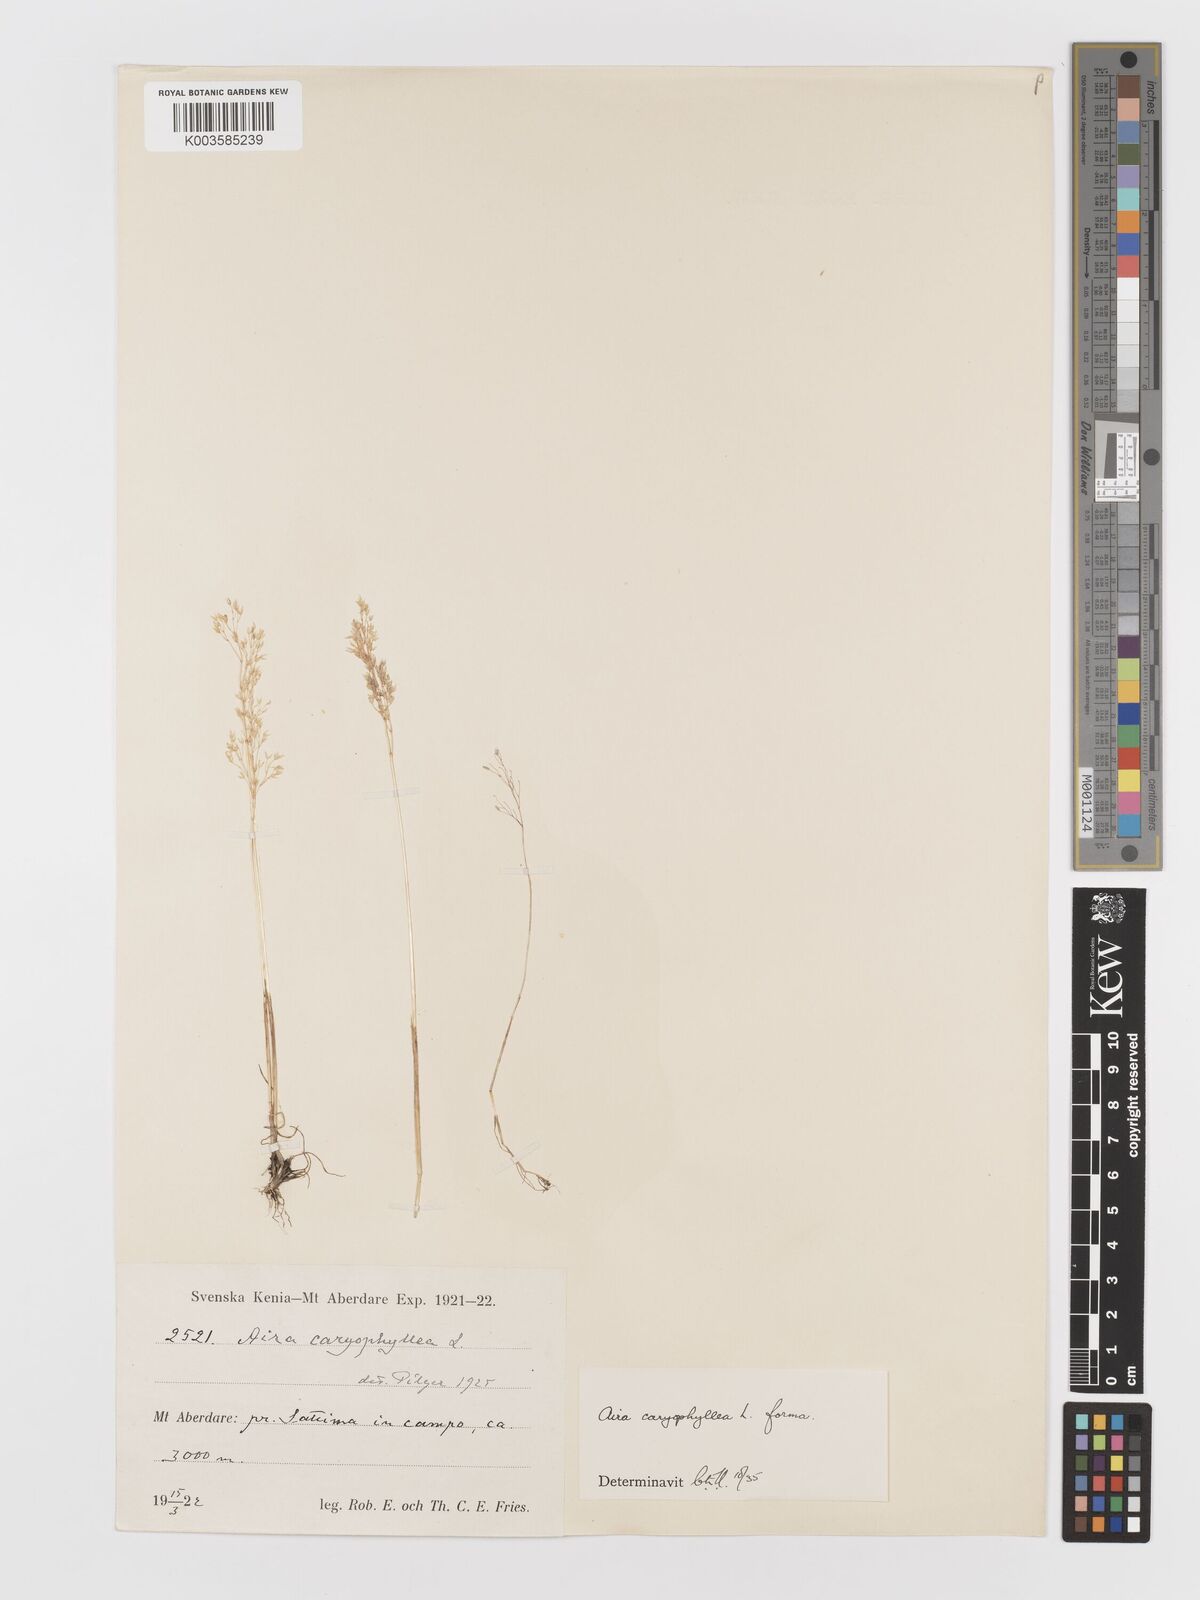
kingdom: Plantae
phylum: Tracheophyta
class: Liliopsida
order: Poales
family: Poaceae
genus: Aira
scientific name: Aira caryophyllea
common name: Silver hairgrass
